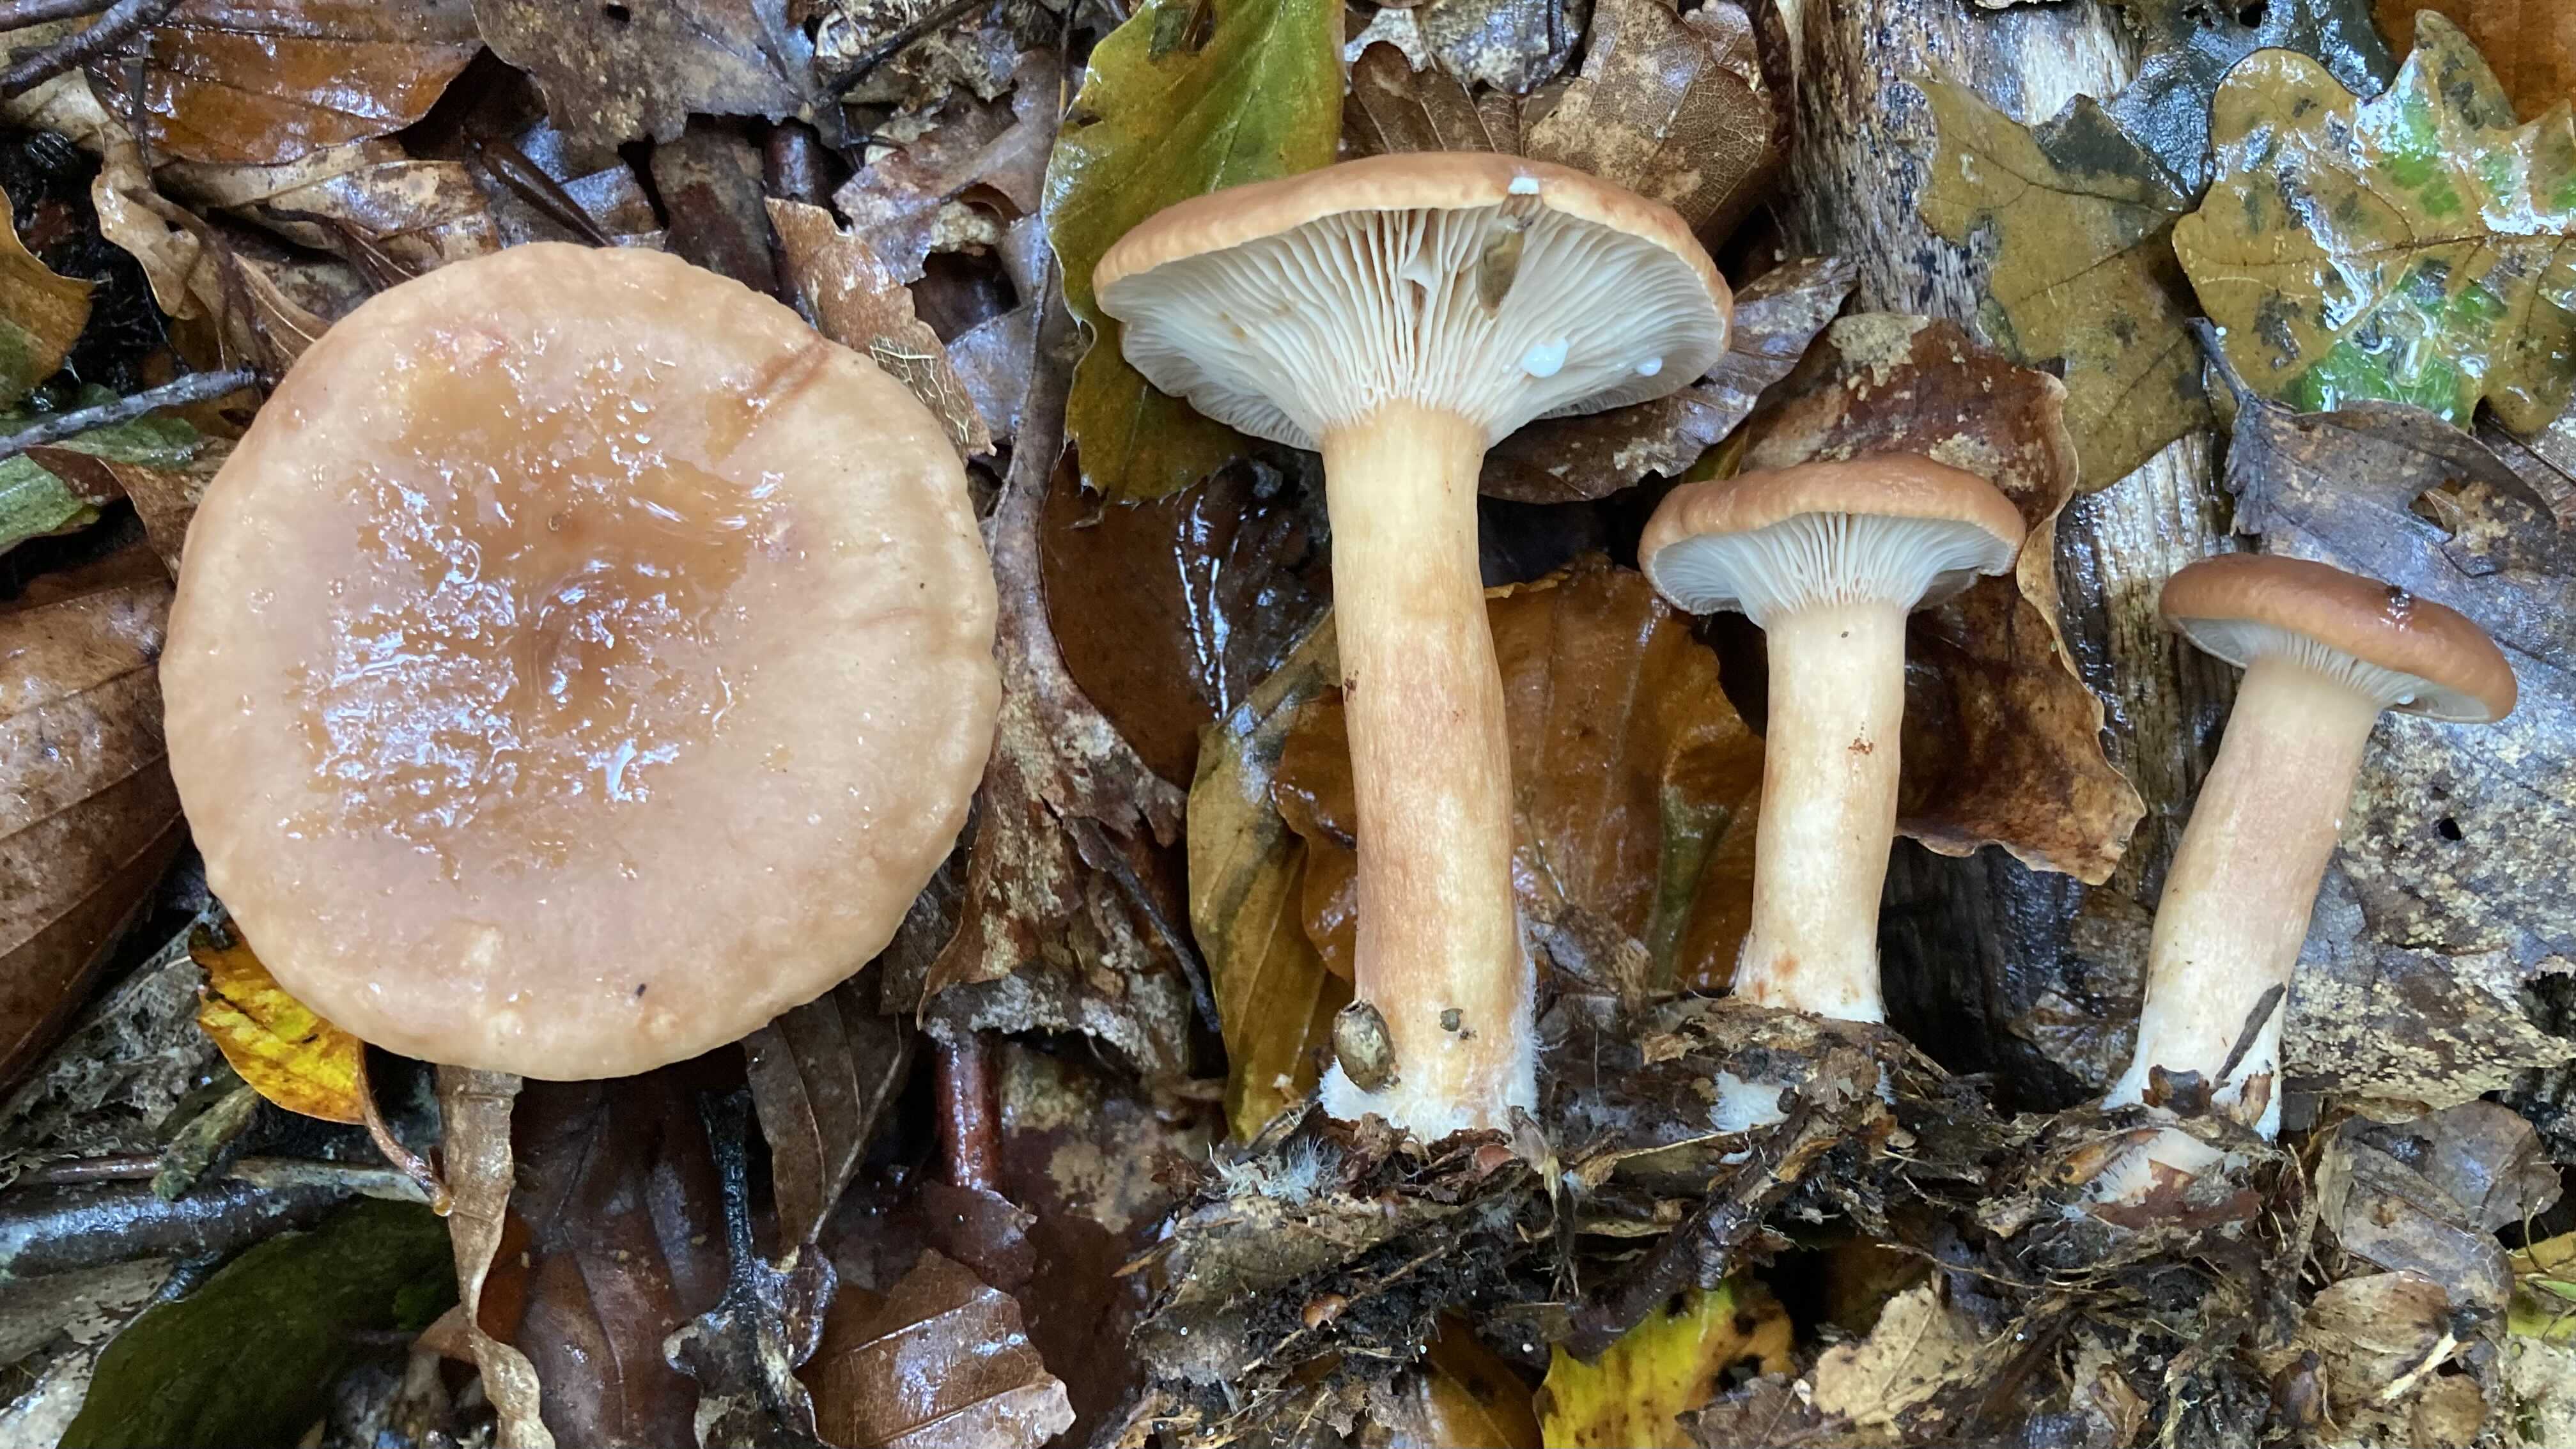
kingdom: Fungi
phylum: Basidiomycota
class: Agaricomycetes
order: Russulales
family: Russulaceae
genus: Lactarius
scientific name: Lactarius subdulcis
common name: sødlig mælkehat
